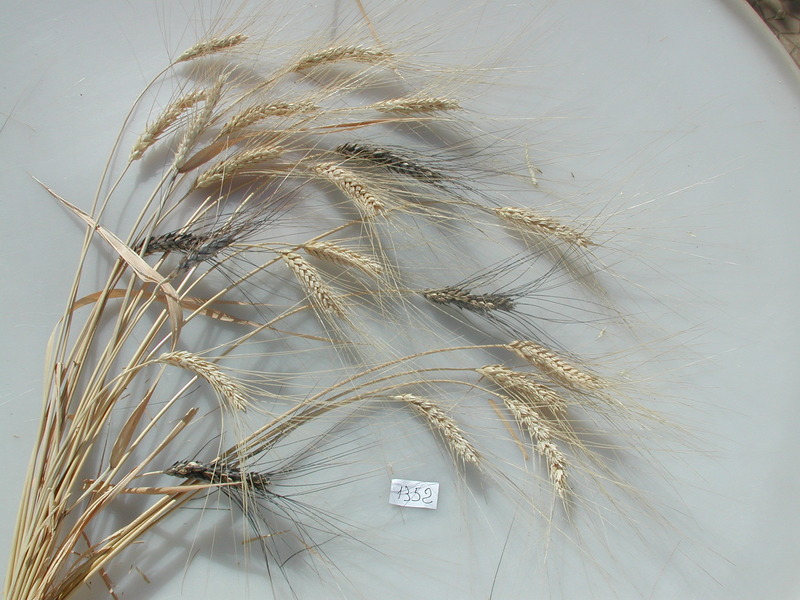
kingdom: Plantae
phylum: Tracheophyta
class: Liliopsida
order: Poales
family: Poaceae
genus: Triticum
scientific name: Triticum turgidum
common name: Wheat
